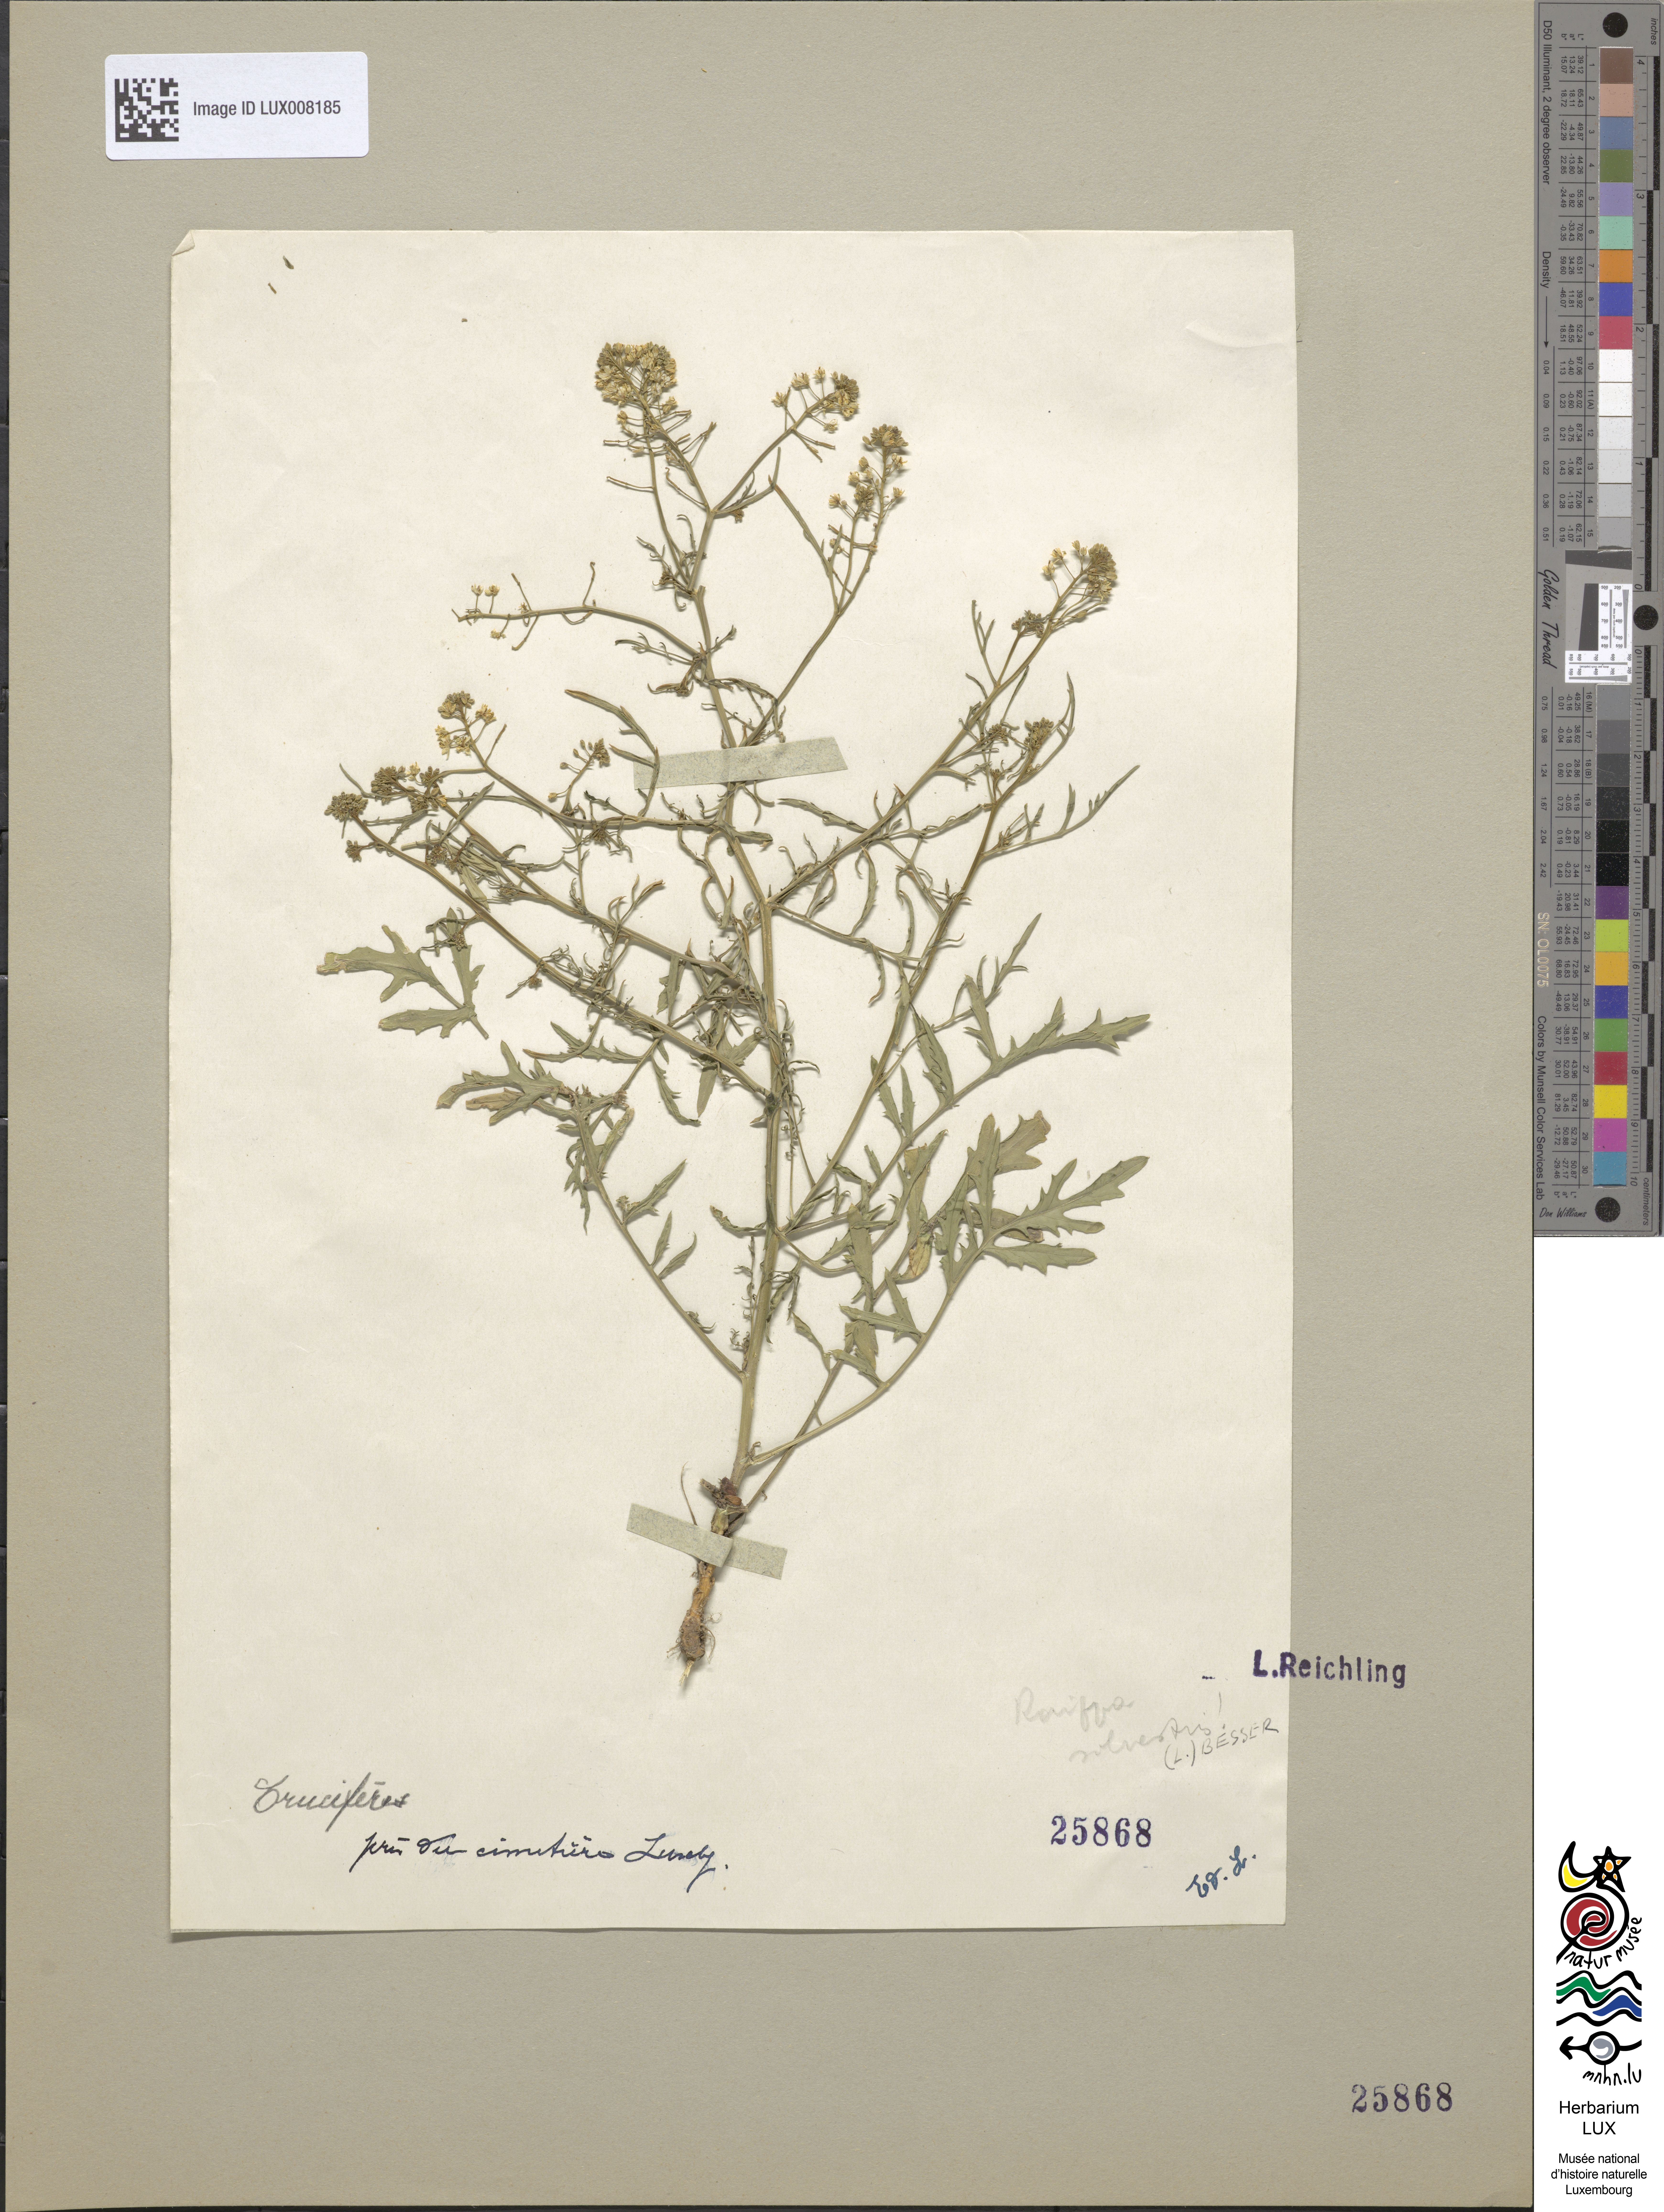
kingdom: Plantae
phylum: Tracheophyta
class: Magnoliopsida
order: Brassicales
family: Brassicaceae
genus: Rorippa
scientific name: Rorippa sylvestris
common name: Creeping yellowcress
